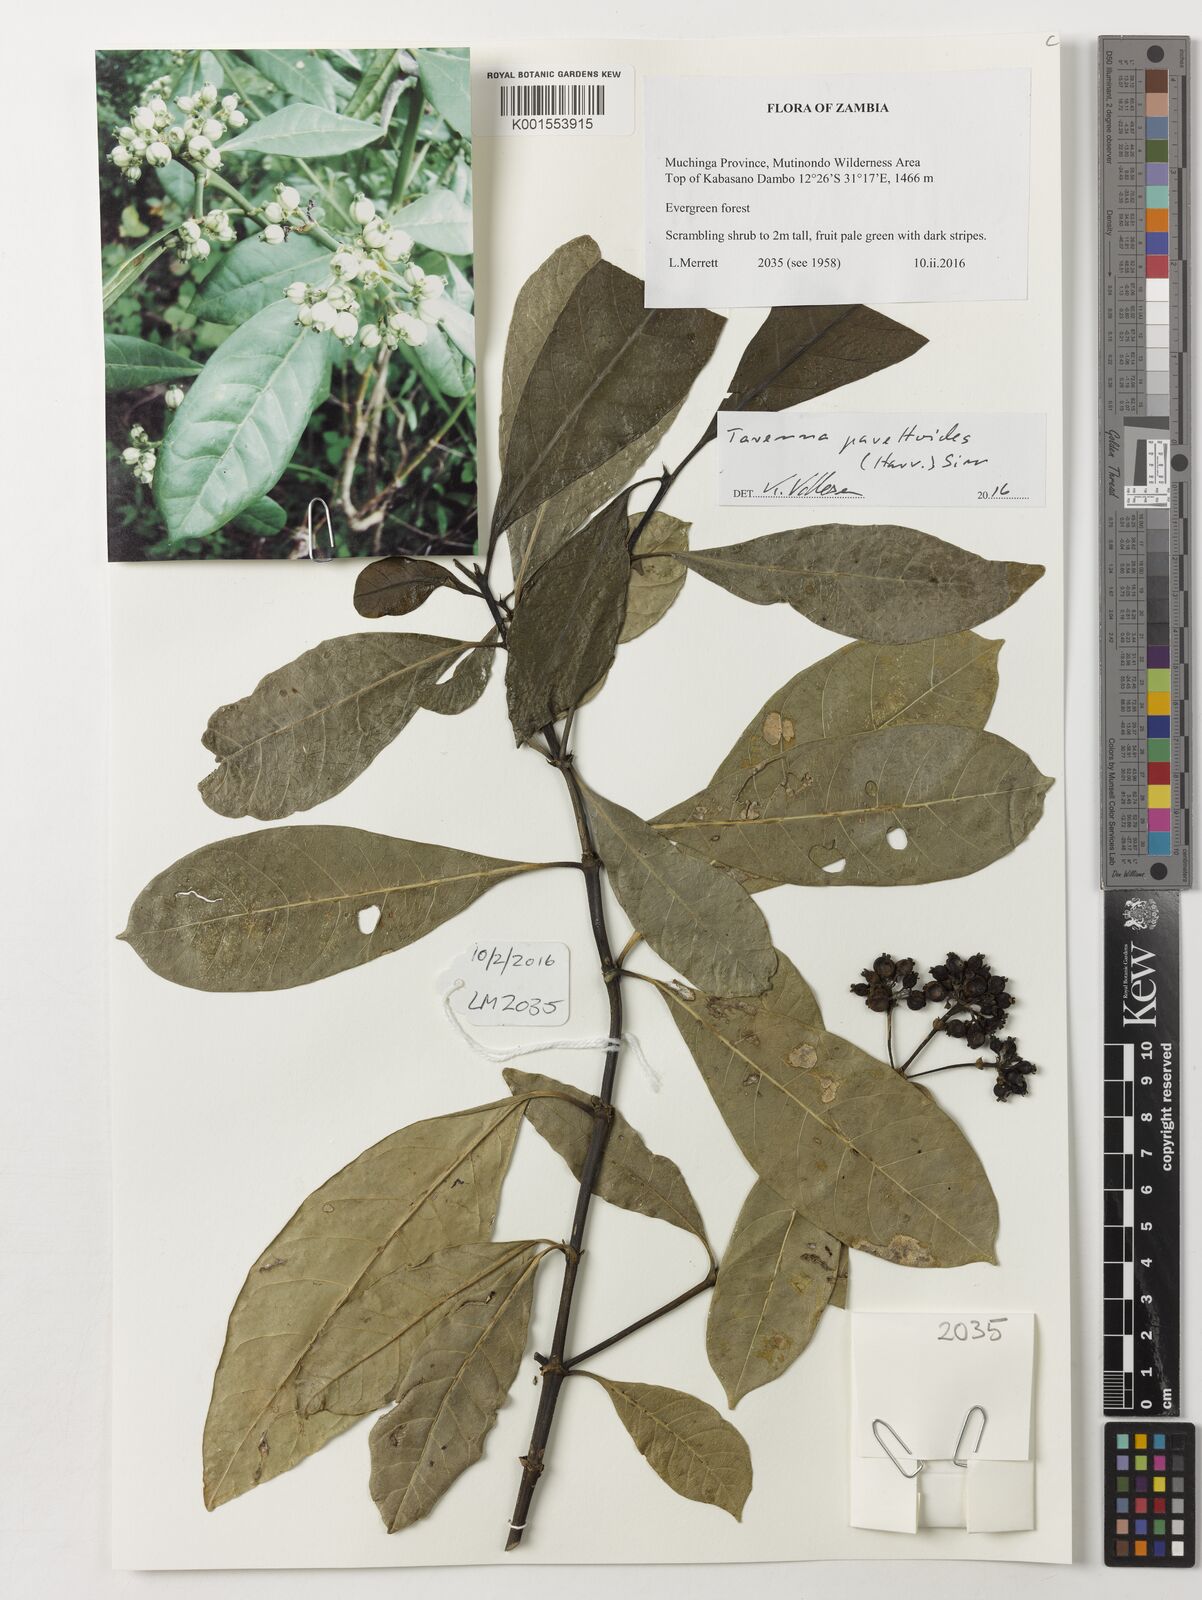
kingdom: Plantae
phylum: Tracheophyta
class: Magnoliopsida
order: Gentianales
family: Rubiaceae
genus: Tarenna
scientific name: Tarenna pavettoides
